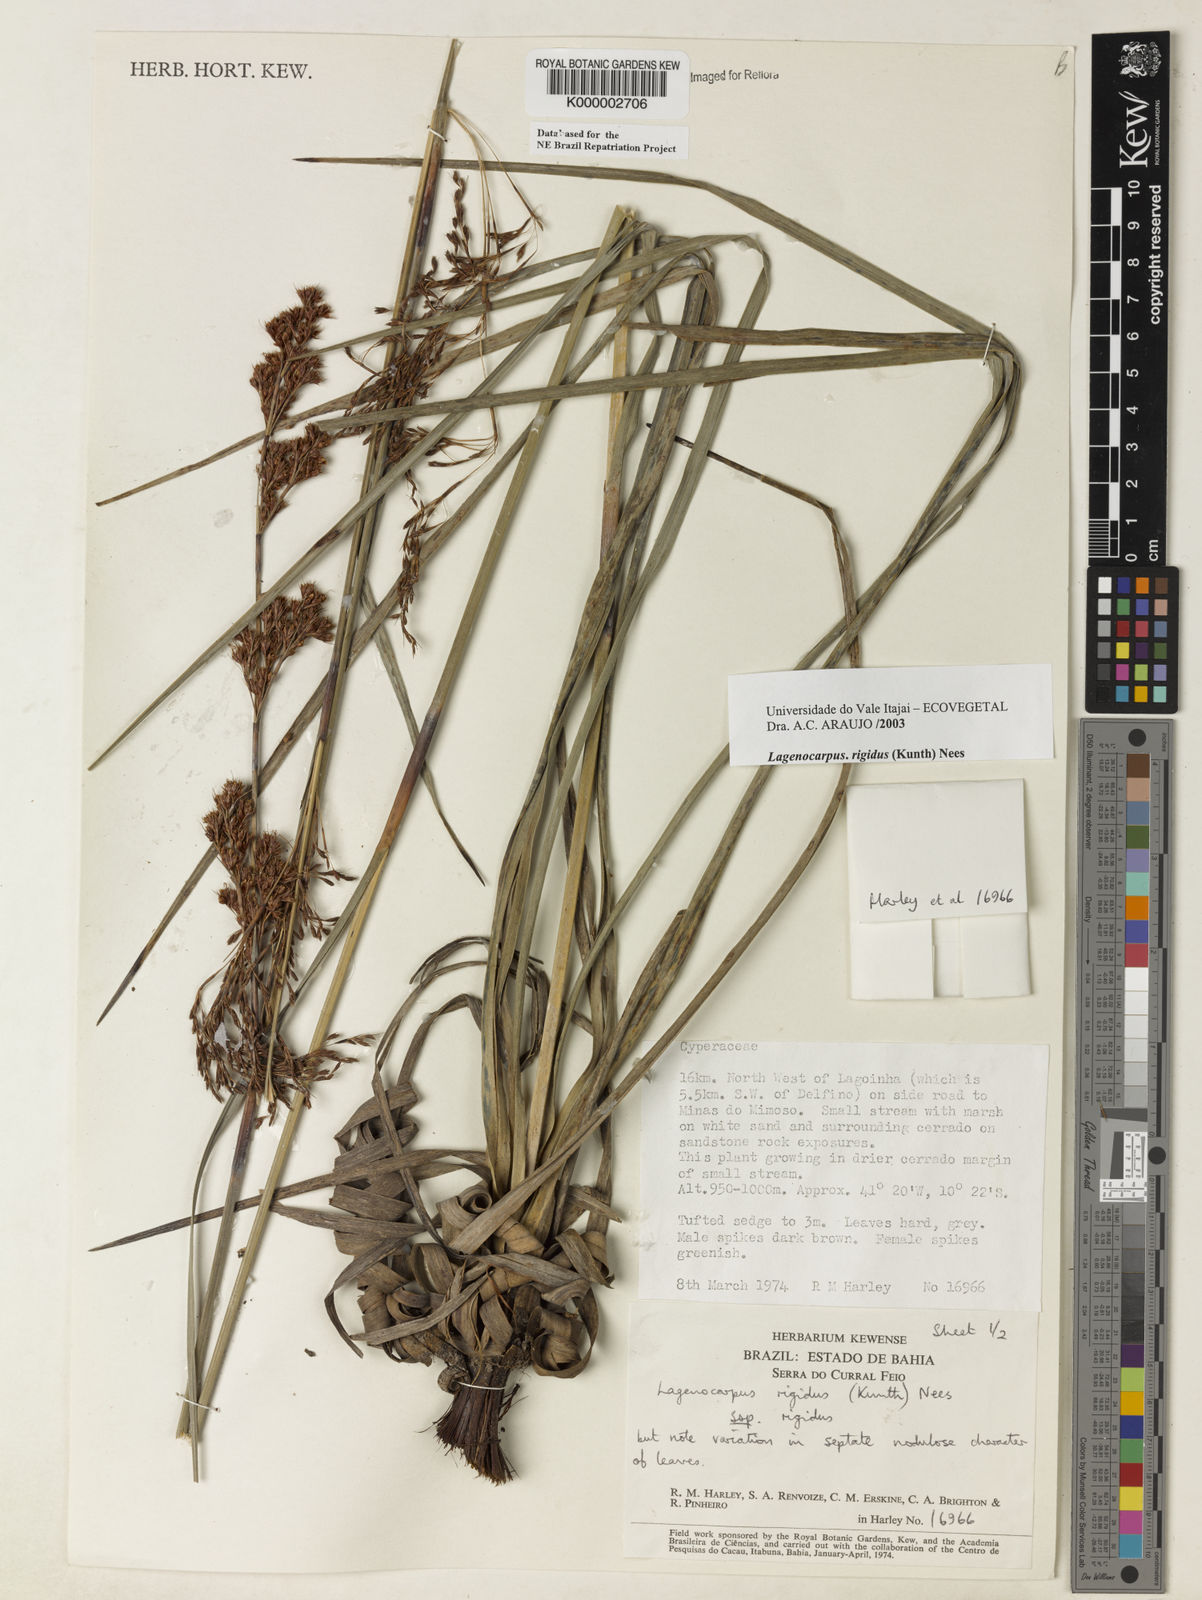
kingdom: Plantae
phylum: Tracheophyta
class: Liliopsida
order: Poales
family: Cyperaceae
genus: Lagenocarpus
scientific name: Lagenocarpus rigidus
